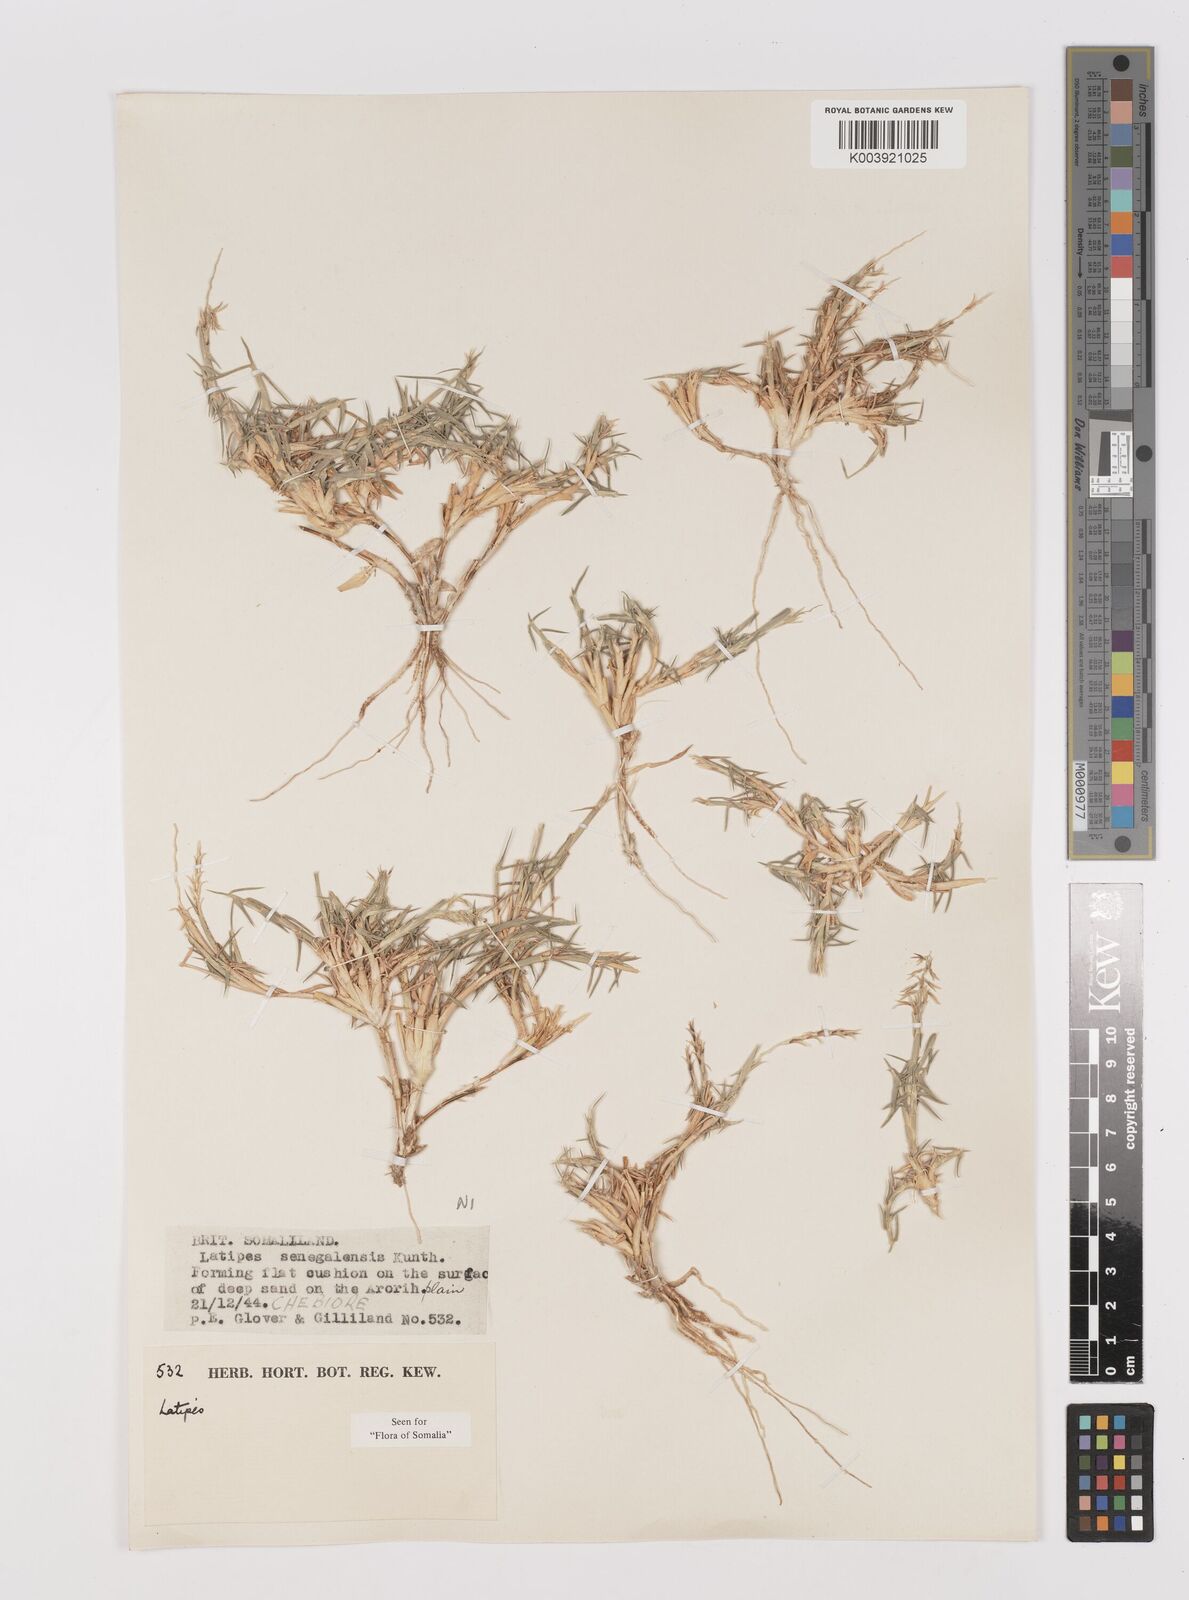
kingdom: Plantae
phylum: Tracheophyta
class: Liliopsida
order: Poales
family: Poaceae
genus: Leptothrium
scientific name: Leptothrium senegalense
